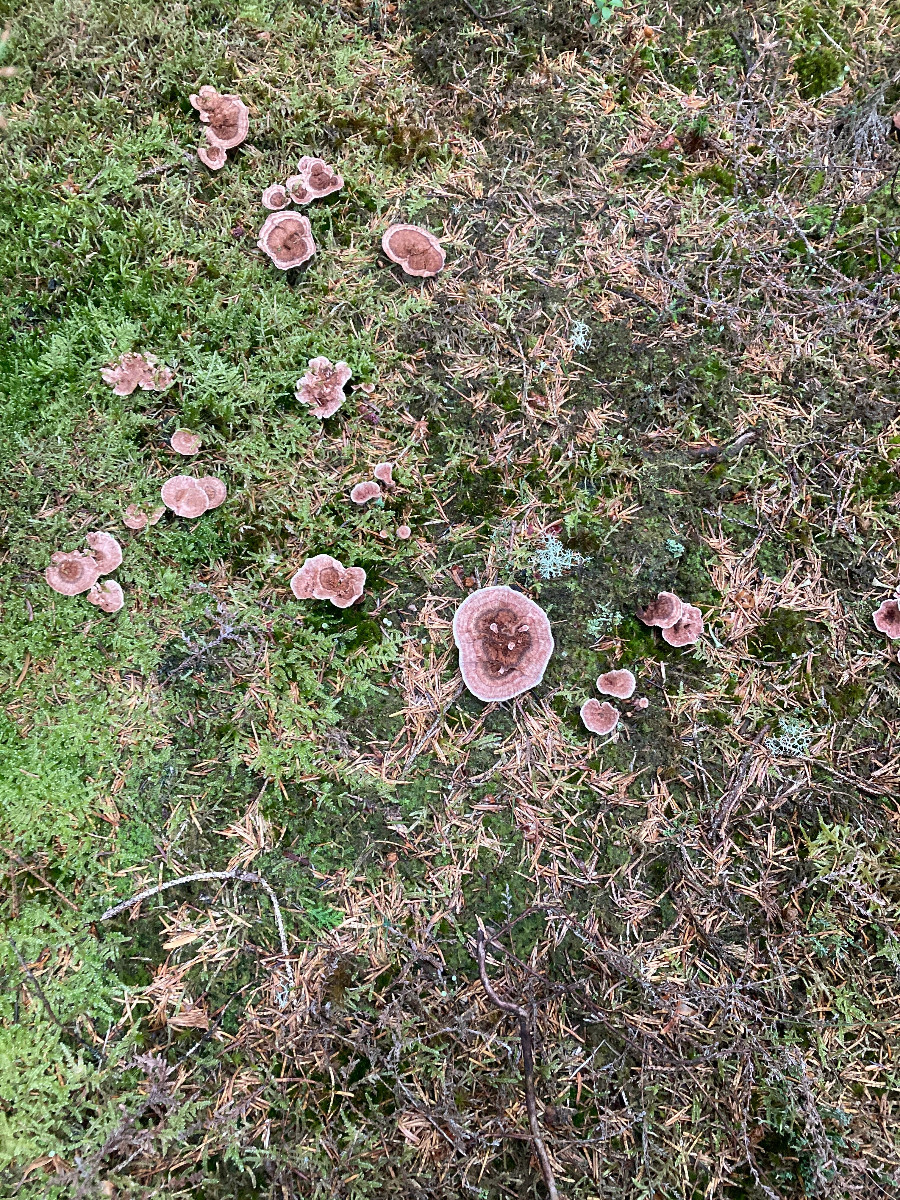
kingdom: Fungi
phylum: Basidiomycota
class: Agaricomycetes
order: Thelephorales
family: Bankeraceae
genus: Hydnellum
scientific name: Hydnellum concrescens
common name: Zoned tooth
